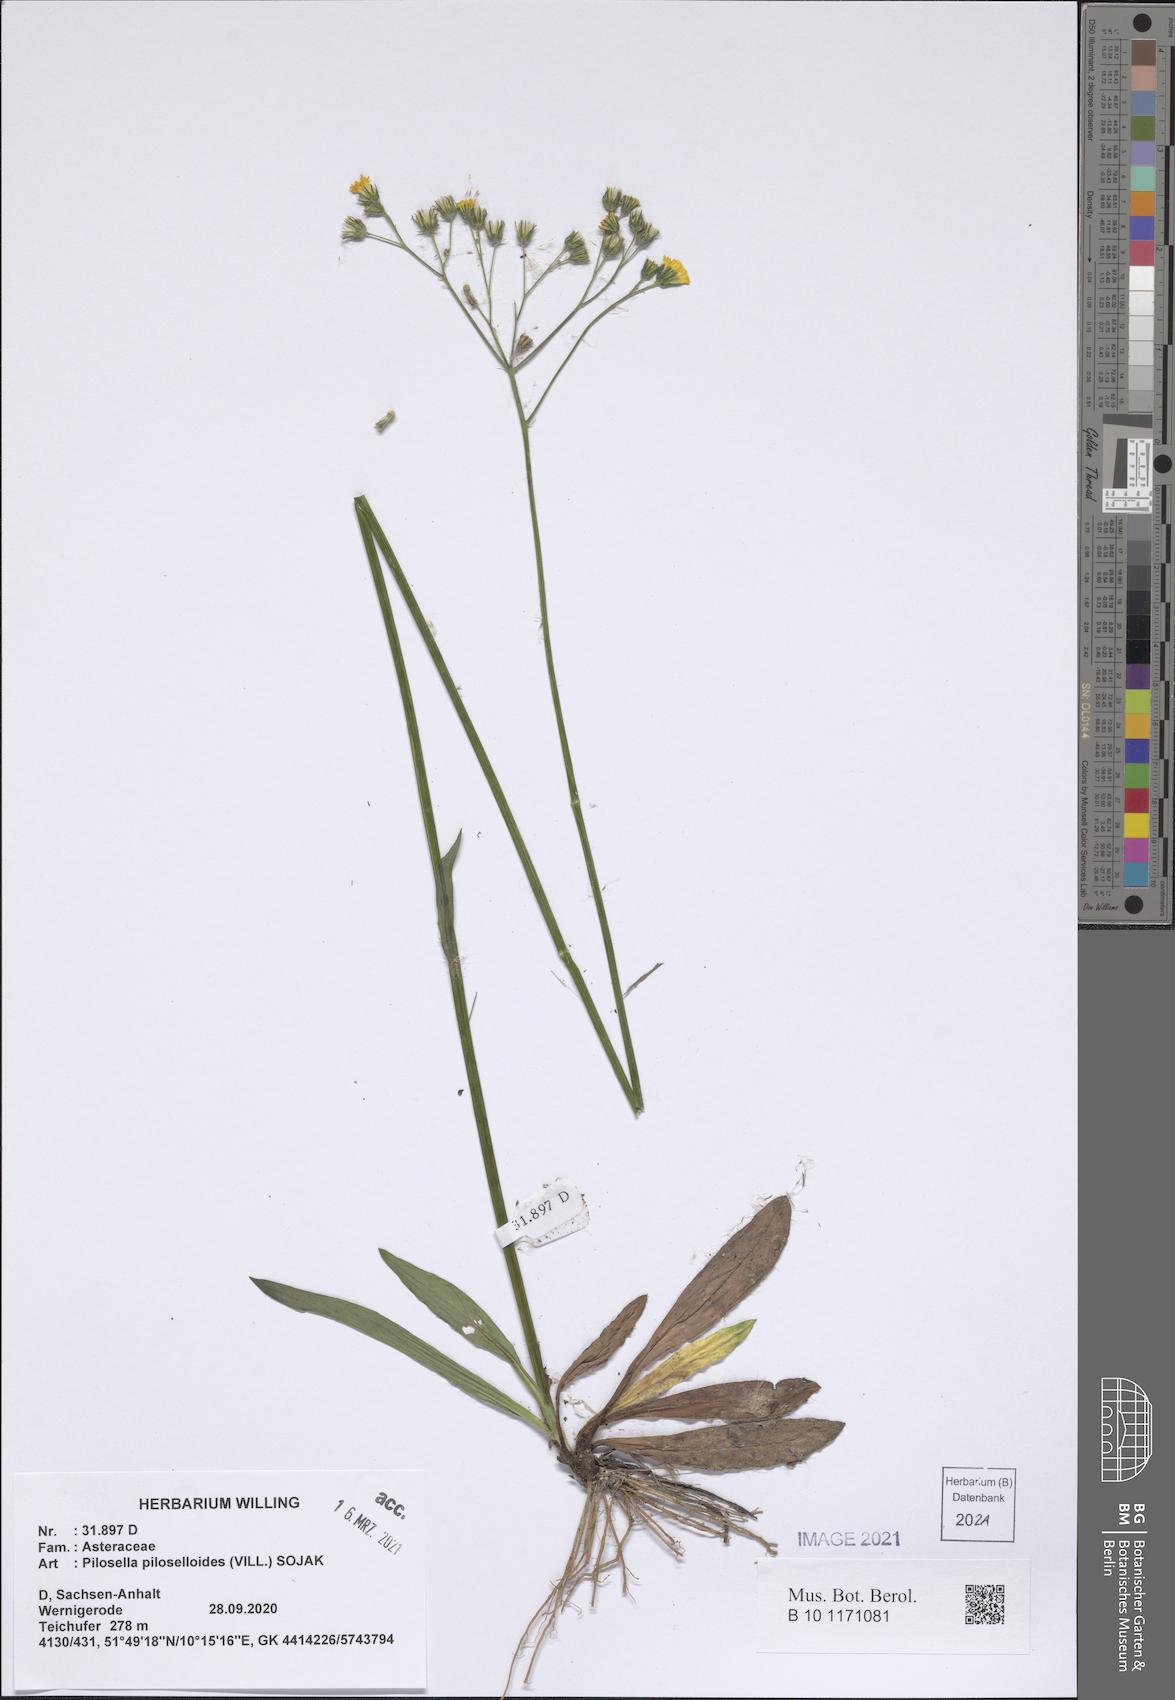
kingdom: Plantae
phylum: Tracheophyta
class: Magnoliopsida
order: Asterales
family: Asteraceae
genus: Pilosella
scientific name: Pilosella piloselloides
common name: Glaucous king-devil
